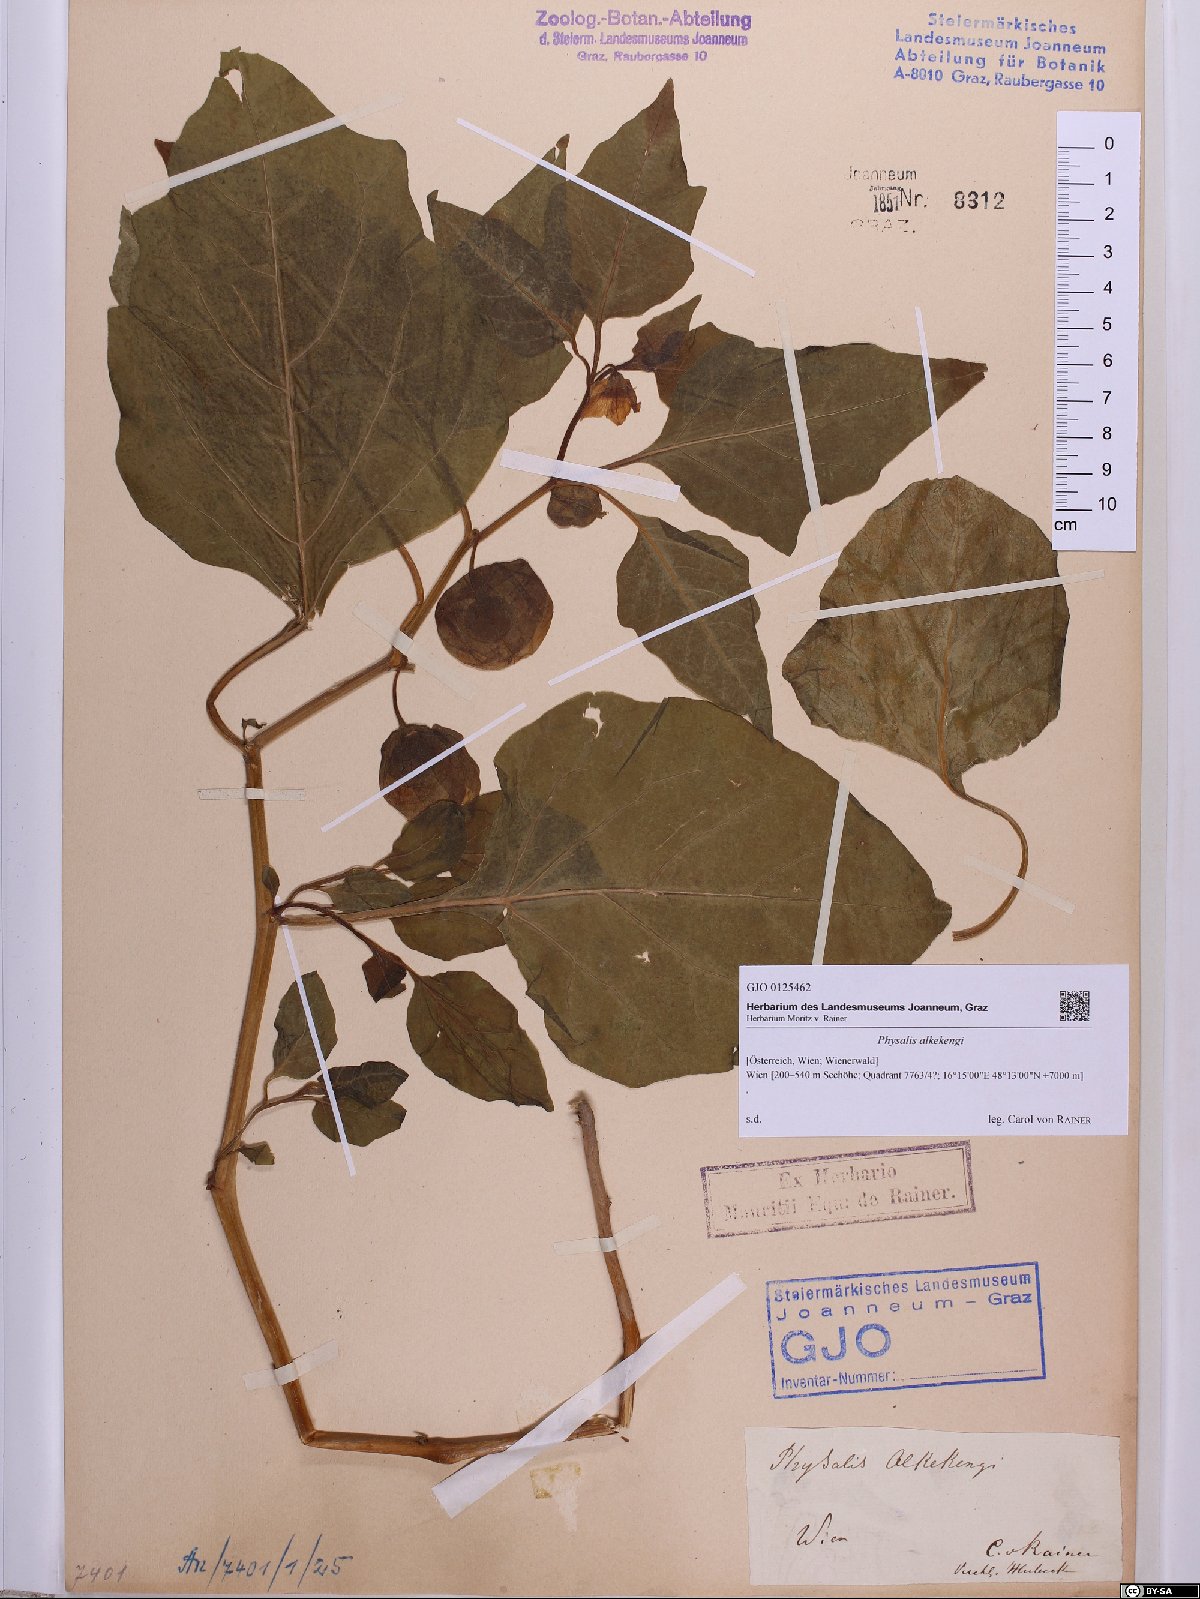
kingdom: Plantae
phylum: Tracheophyta
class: Magnoliopsida
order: Solanales
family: Solanaceae
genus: Alkekengi
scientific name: Alkekengi officinarum
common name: Japanese-lantern
